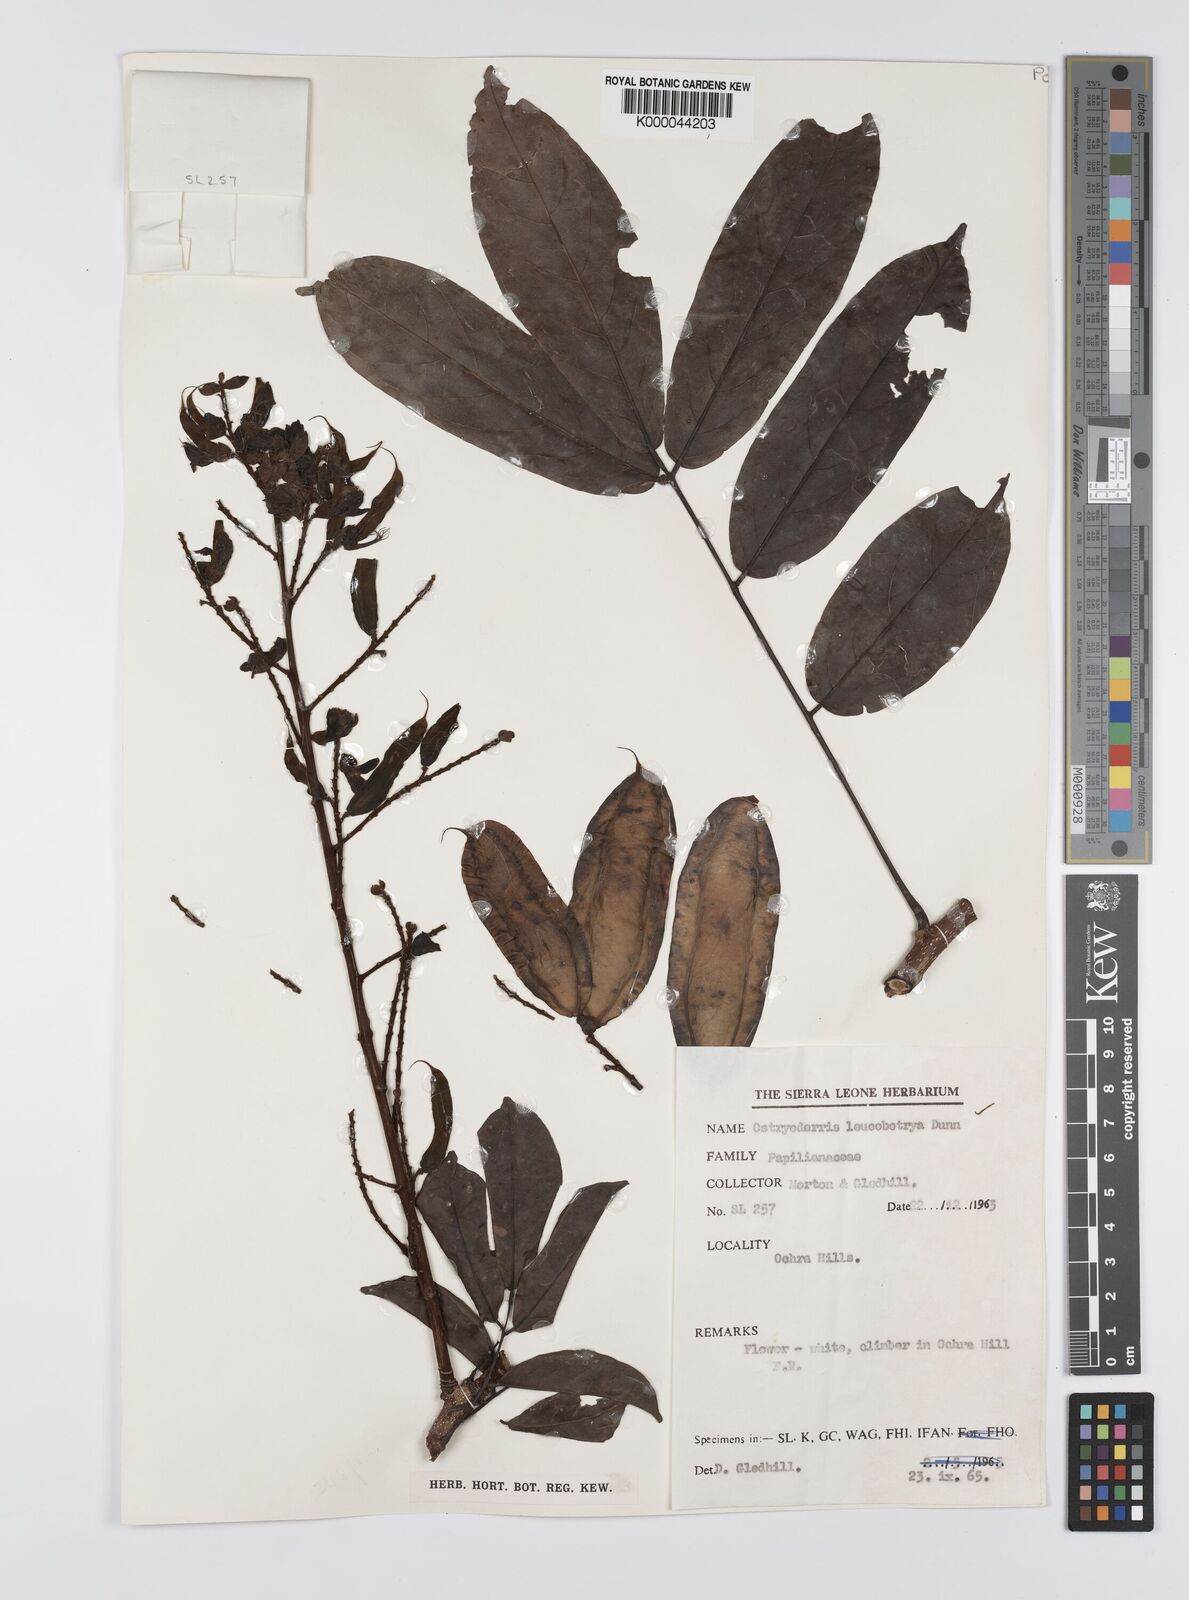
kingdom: Plantae
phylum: Tracheophyta
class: Magnoliopsida
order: Fabales
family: Fabaceae
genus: Aganope
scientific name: Aganope leucobotrya
